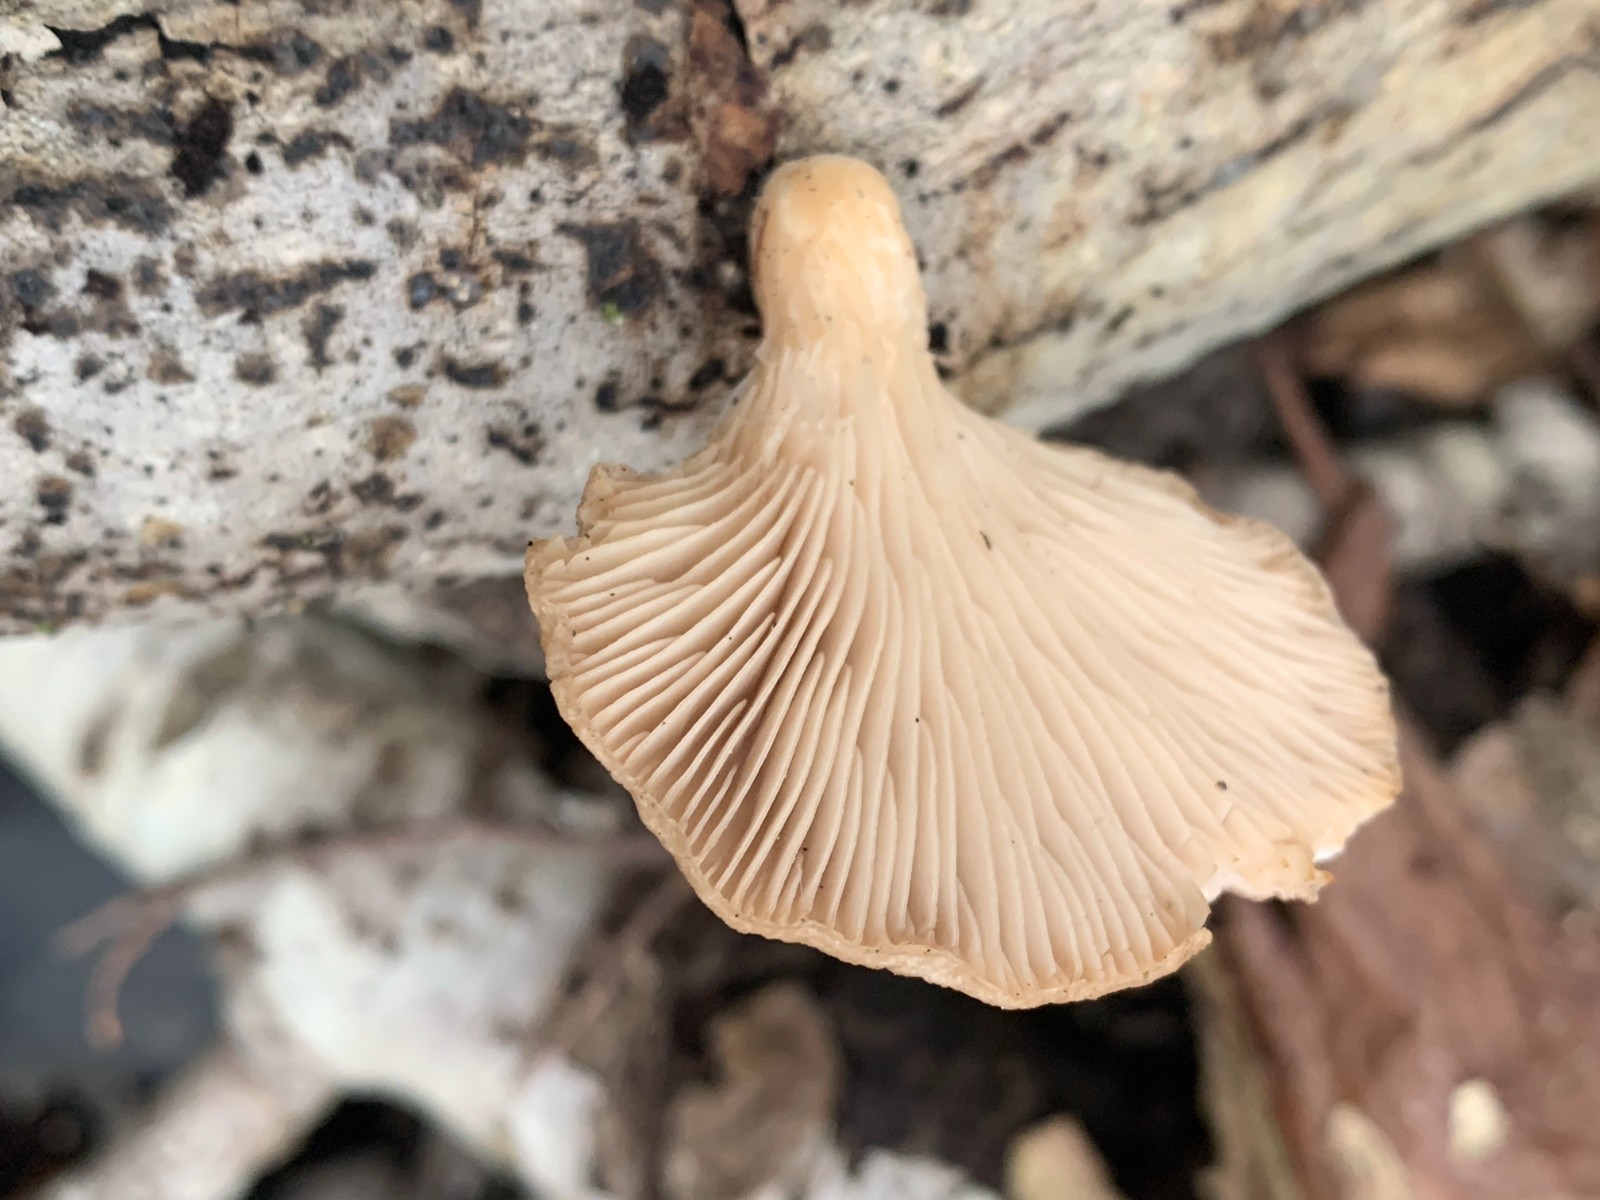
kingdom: Fungi
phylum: Basidiomycota
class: Agaricomycetes
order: Agaricales
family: Pleurotaceae
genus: Pleurotus
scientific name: Pleurotus ostreatus
